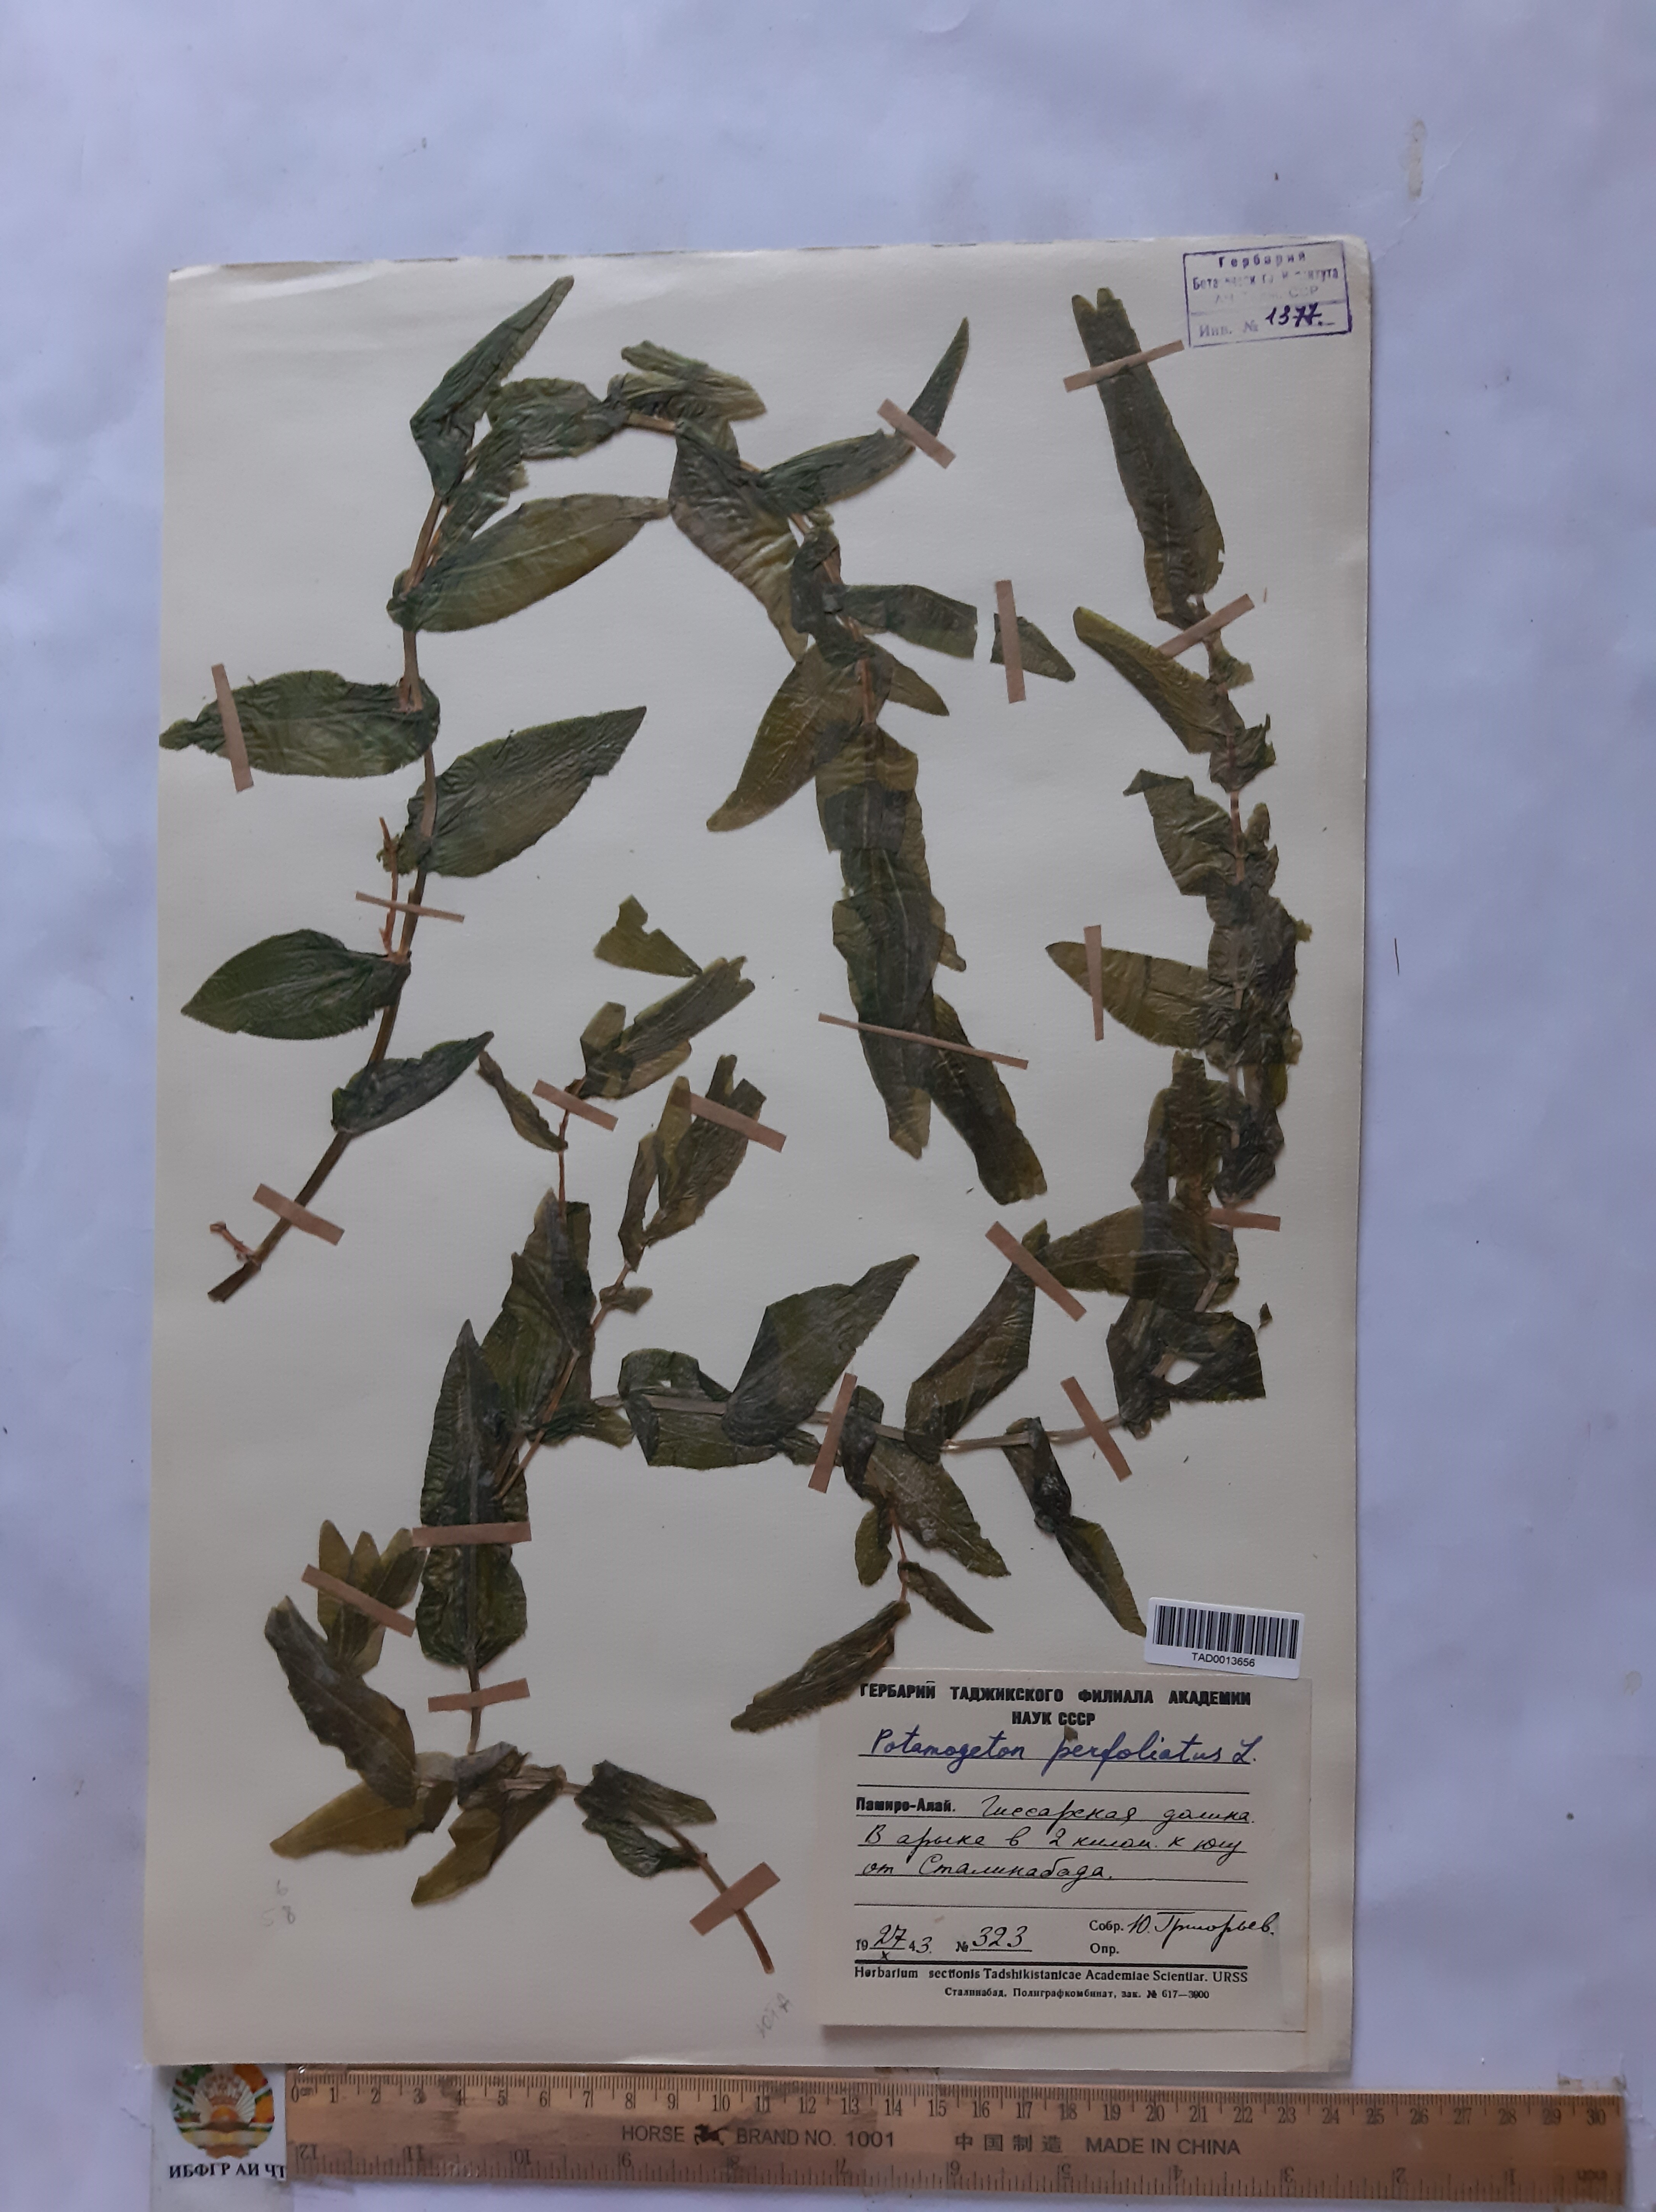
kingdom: Plantae
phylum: Tracheophyta
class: Liliopsida
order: Alismatales
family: Potamogetonaceae
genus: Potamogeton
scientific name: Potamogeton perfoliatus
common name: Perfoliate pondweed
